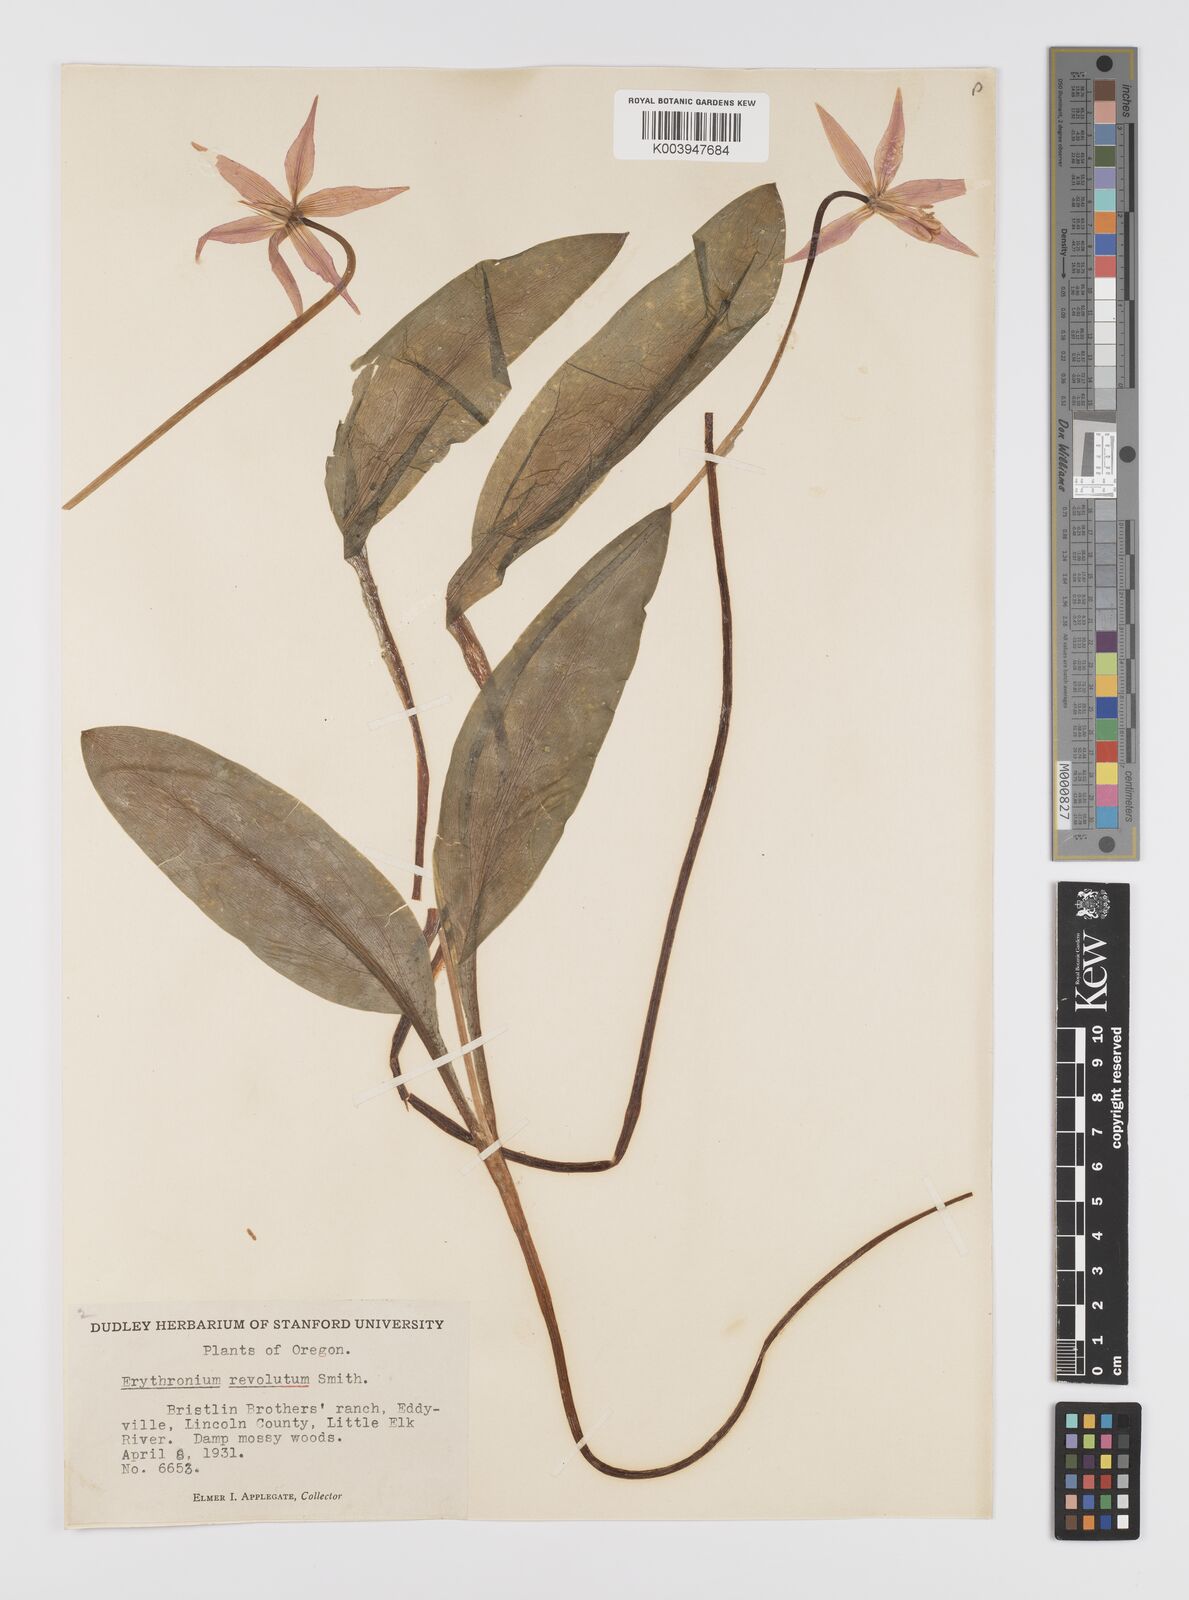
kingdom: Plantae
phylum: Tracheophyta
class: Liliopsida
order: Liliales
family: Liliaceae
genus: Erythronium
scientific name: Erythronium purpurascens
